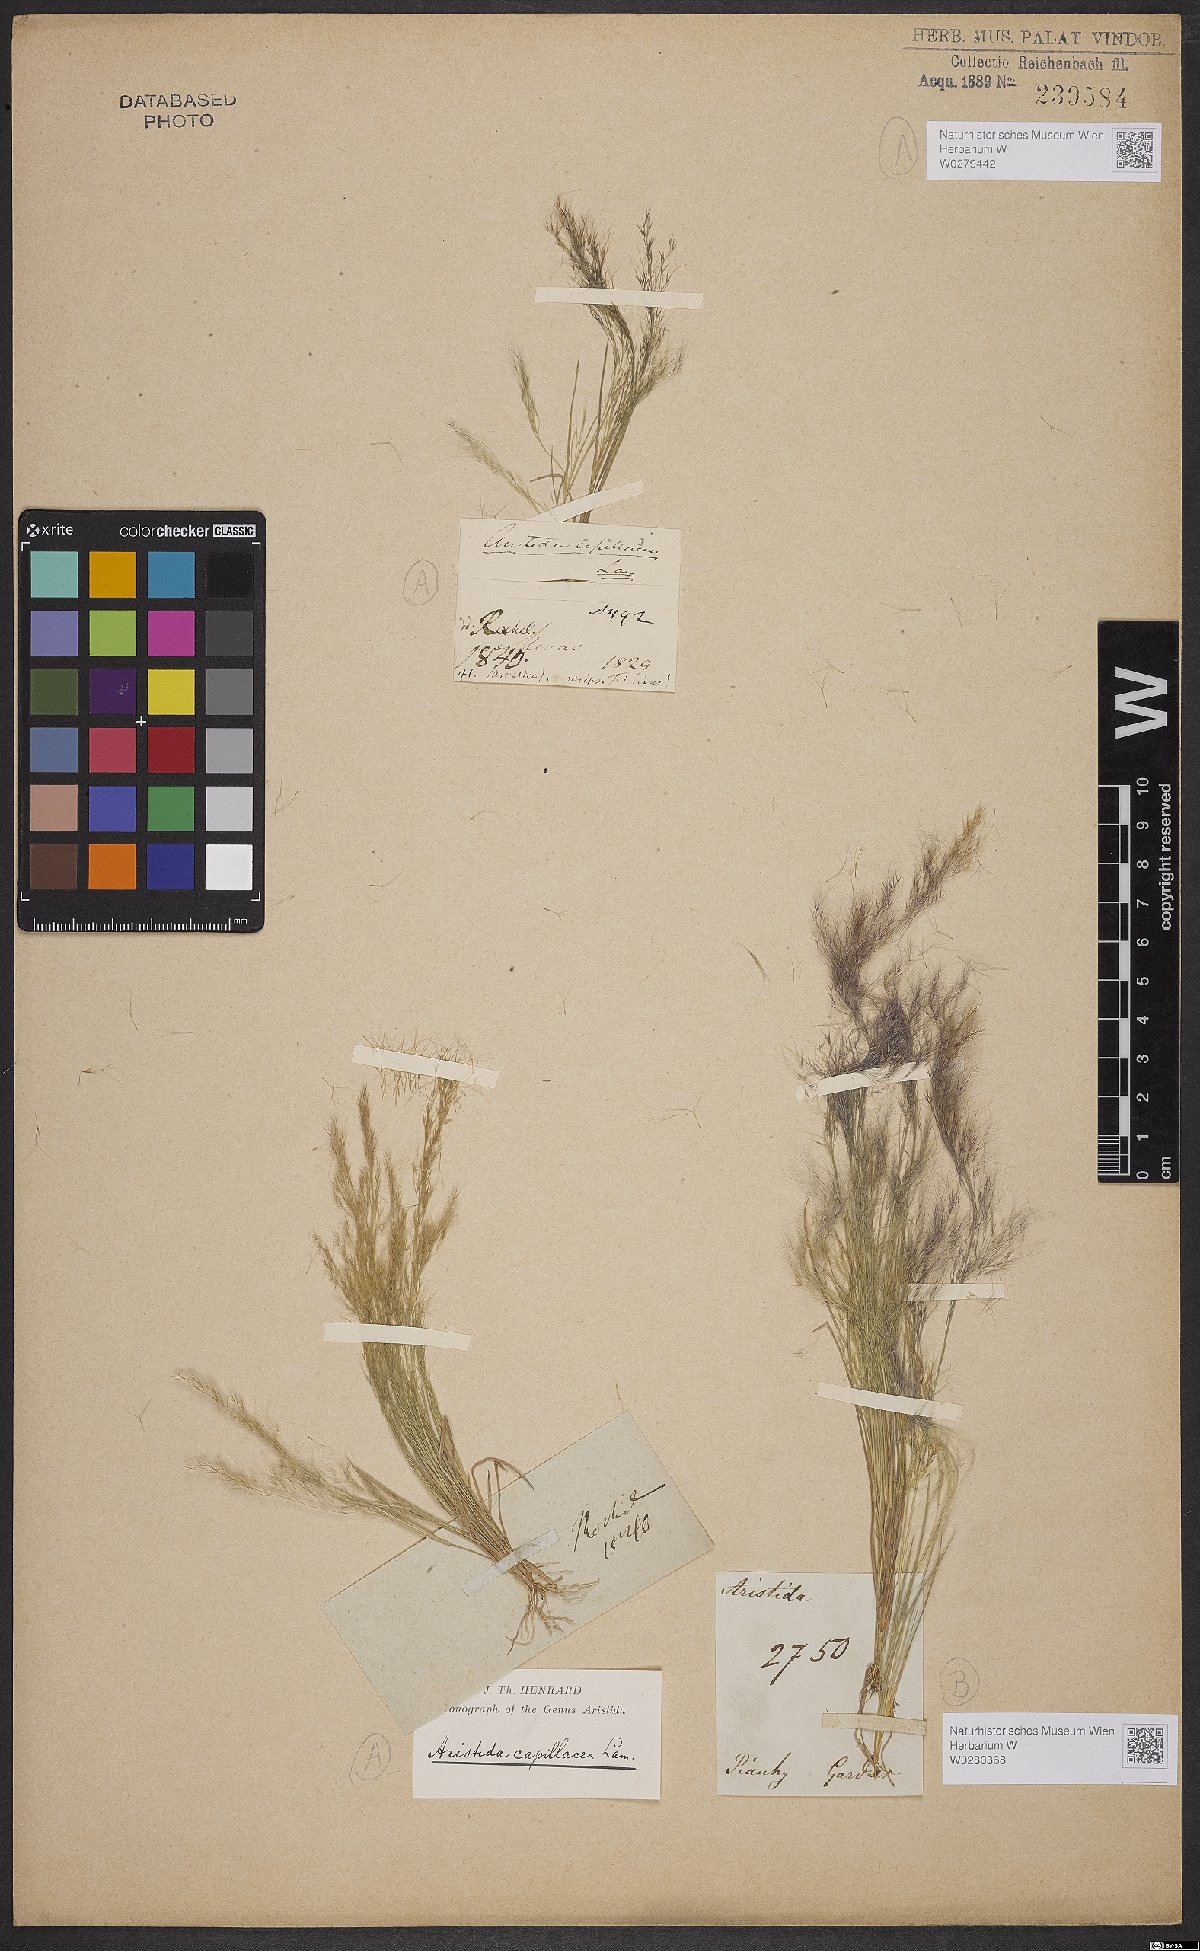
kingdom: Plantae
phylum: Tracheophyta
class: Liliopsida
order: Poales
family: Poaceae
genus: Aristida
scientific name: Aristida capillacea
